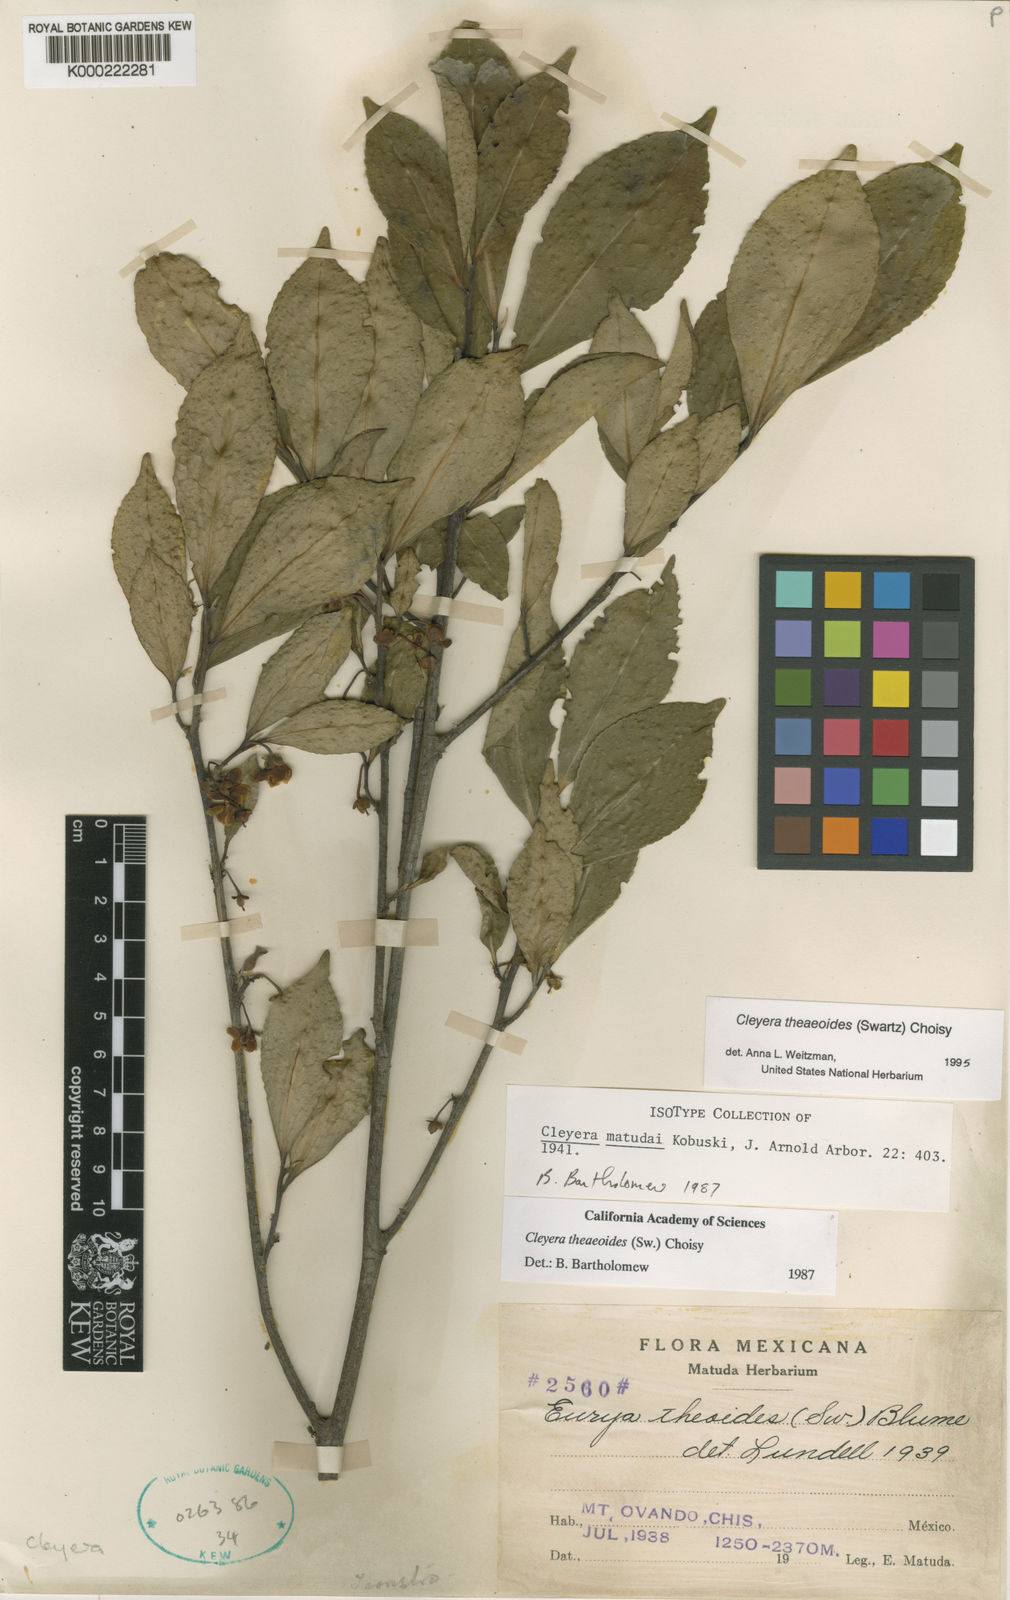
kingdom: Plantae
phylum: Tracheophyta
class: Magnoliopsida
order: Ericales
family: Pentaphylacaceae
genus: Cleyera
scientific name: Cleyera theaeoides
